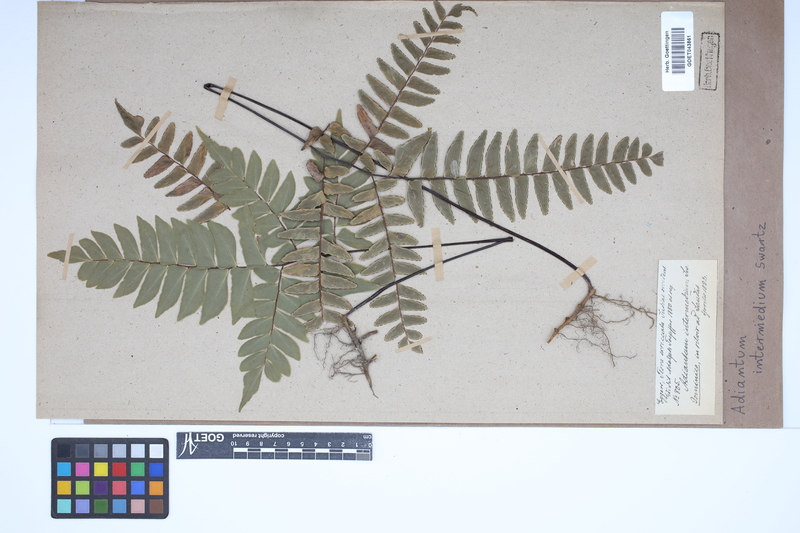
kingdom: Plantae
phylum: Tracheophyta
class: Polypodiopsida
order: Polypodiales
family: Pteridaceae
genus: Adiantum
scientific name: Adiantum intermedium
